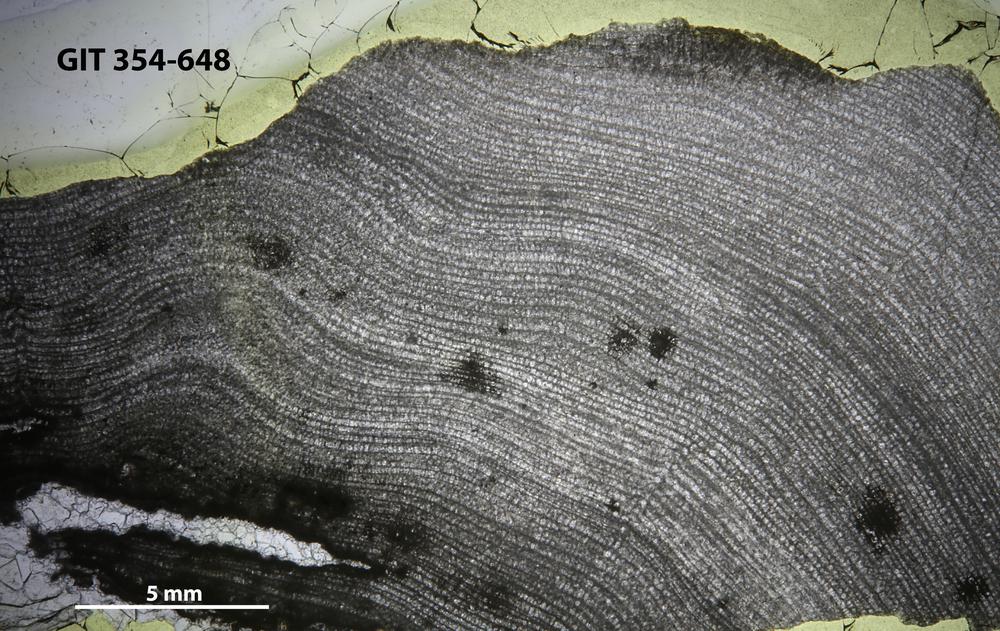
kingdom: Animalia
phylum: Porifera
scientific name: Porifera
